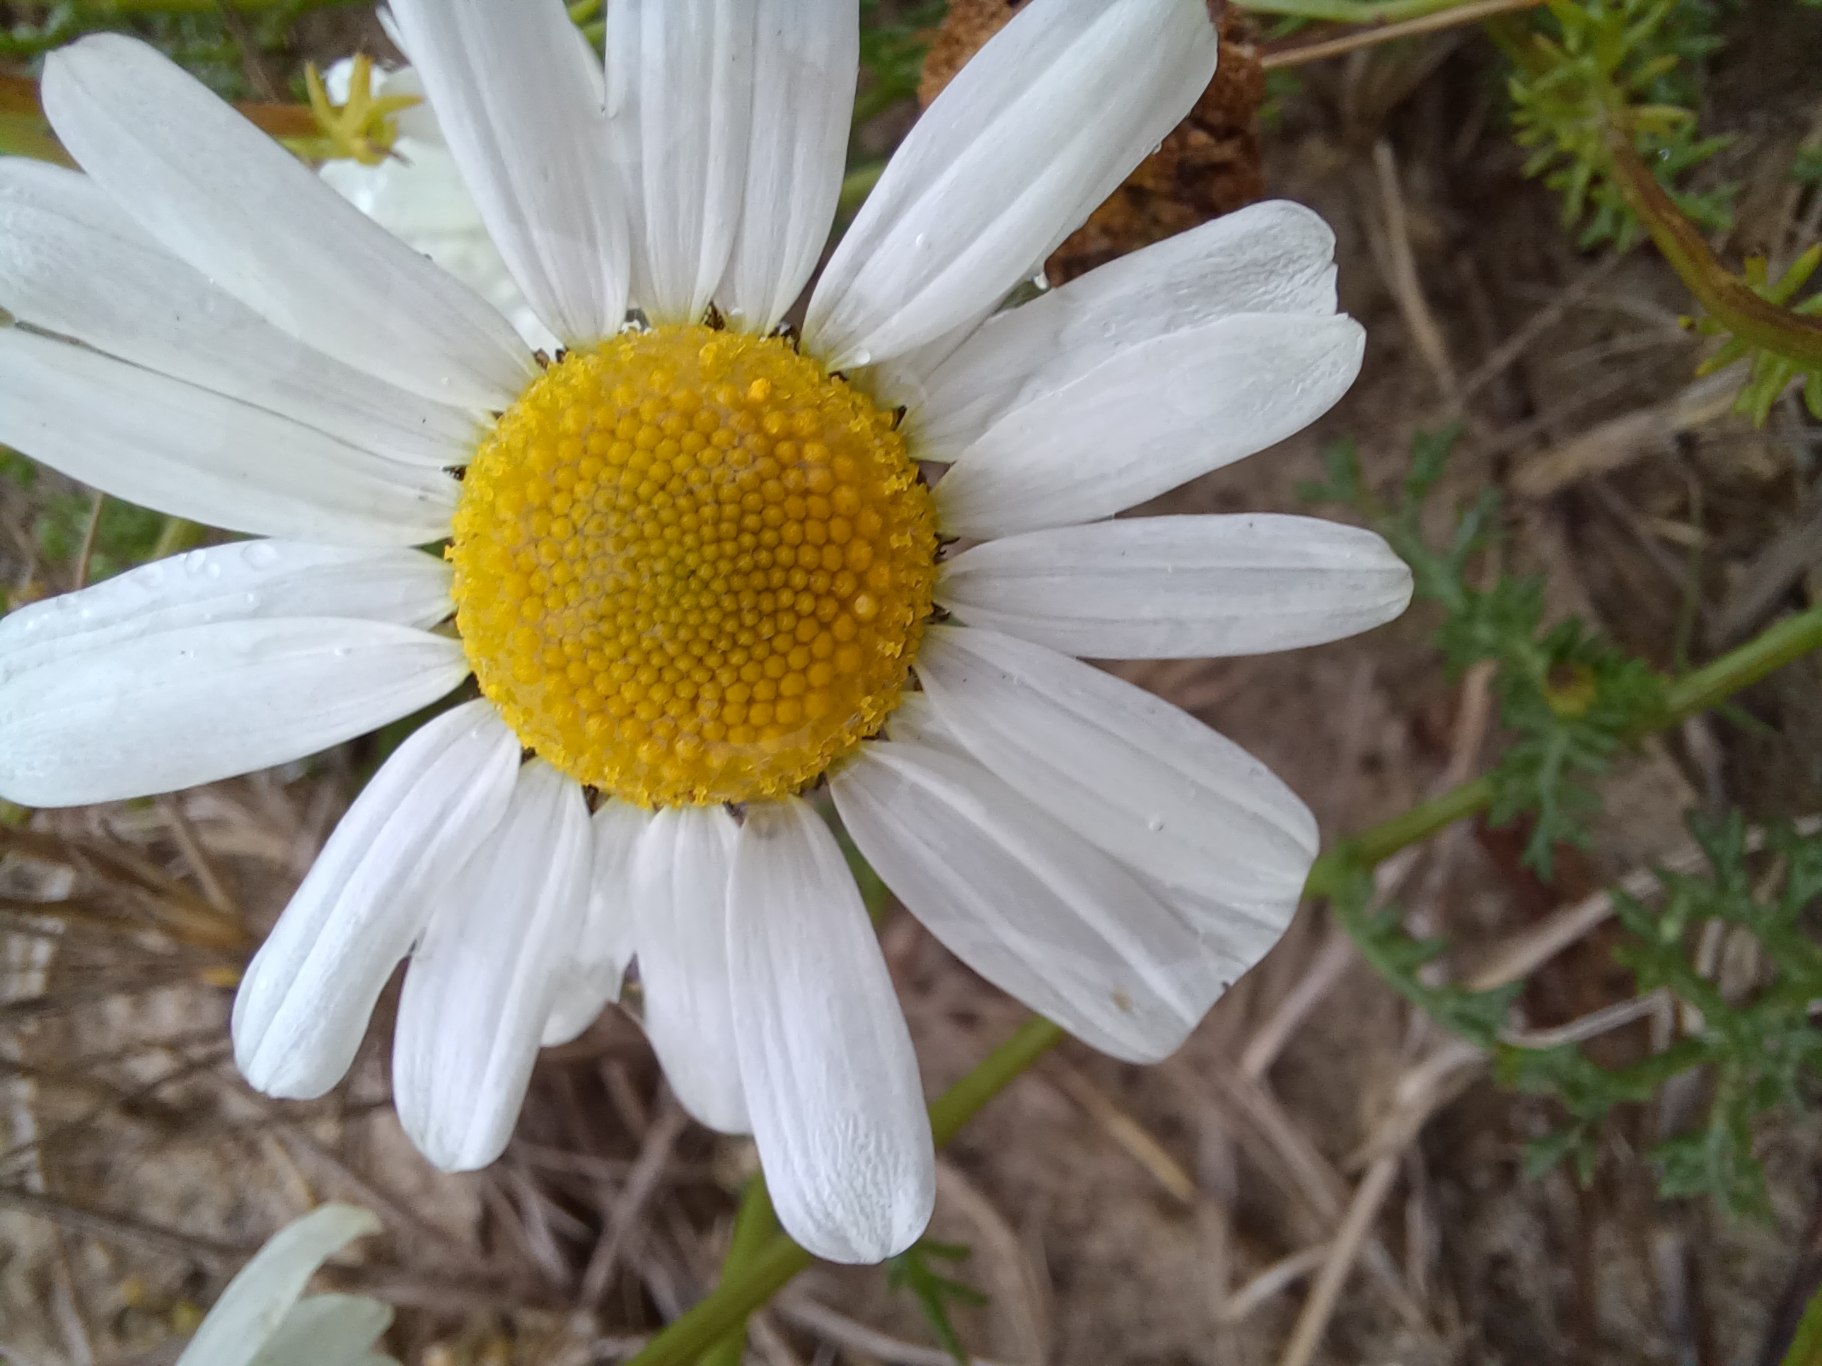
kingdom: Plantae
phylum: Tracheophyta
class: Magnoliopsida
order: Asterales
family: Asteraceae
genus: Tripleurospermum
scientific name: Tripleurospermum maritimum
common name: Strand-kamille
